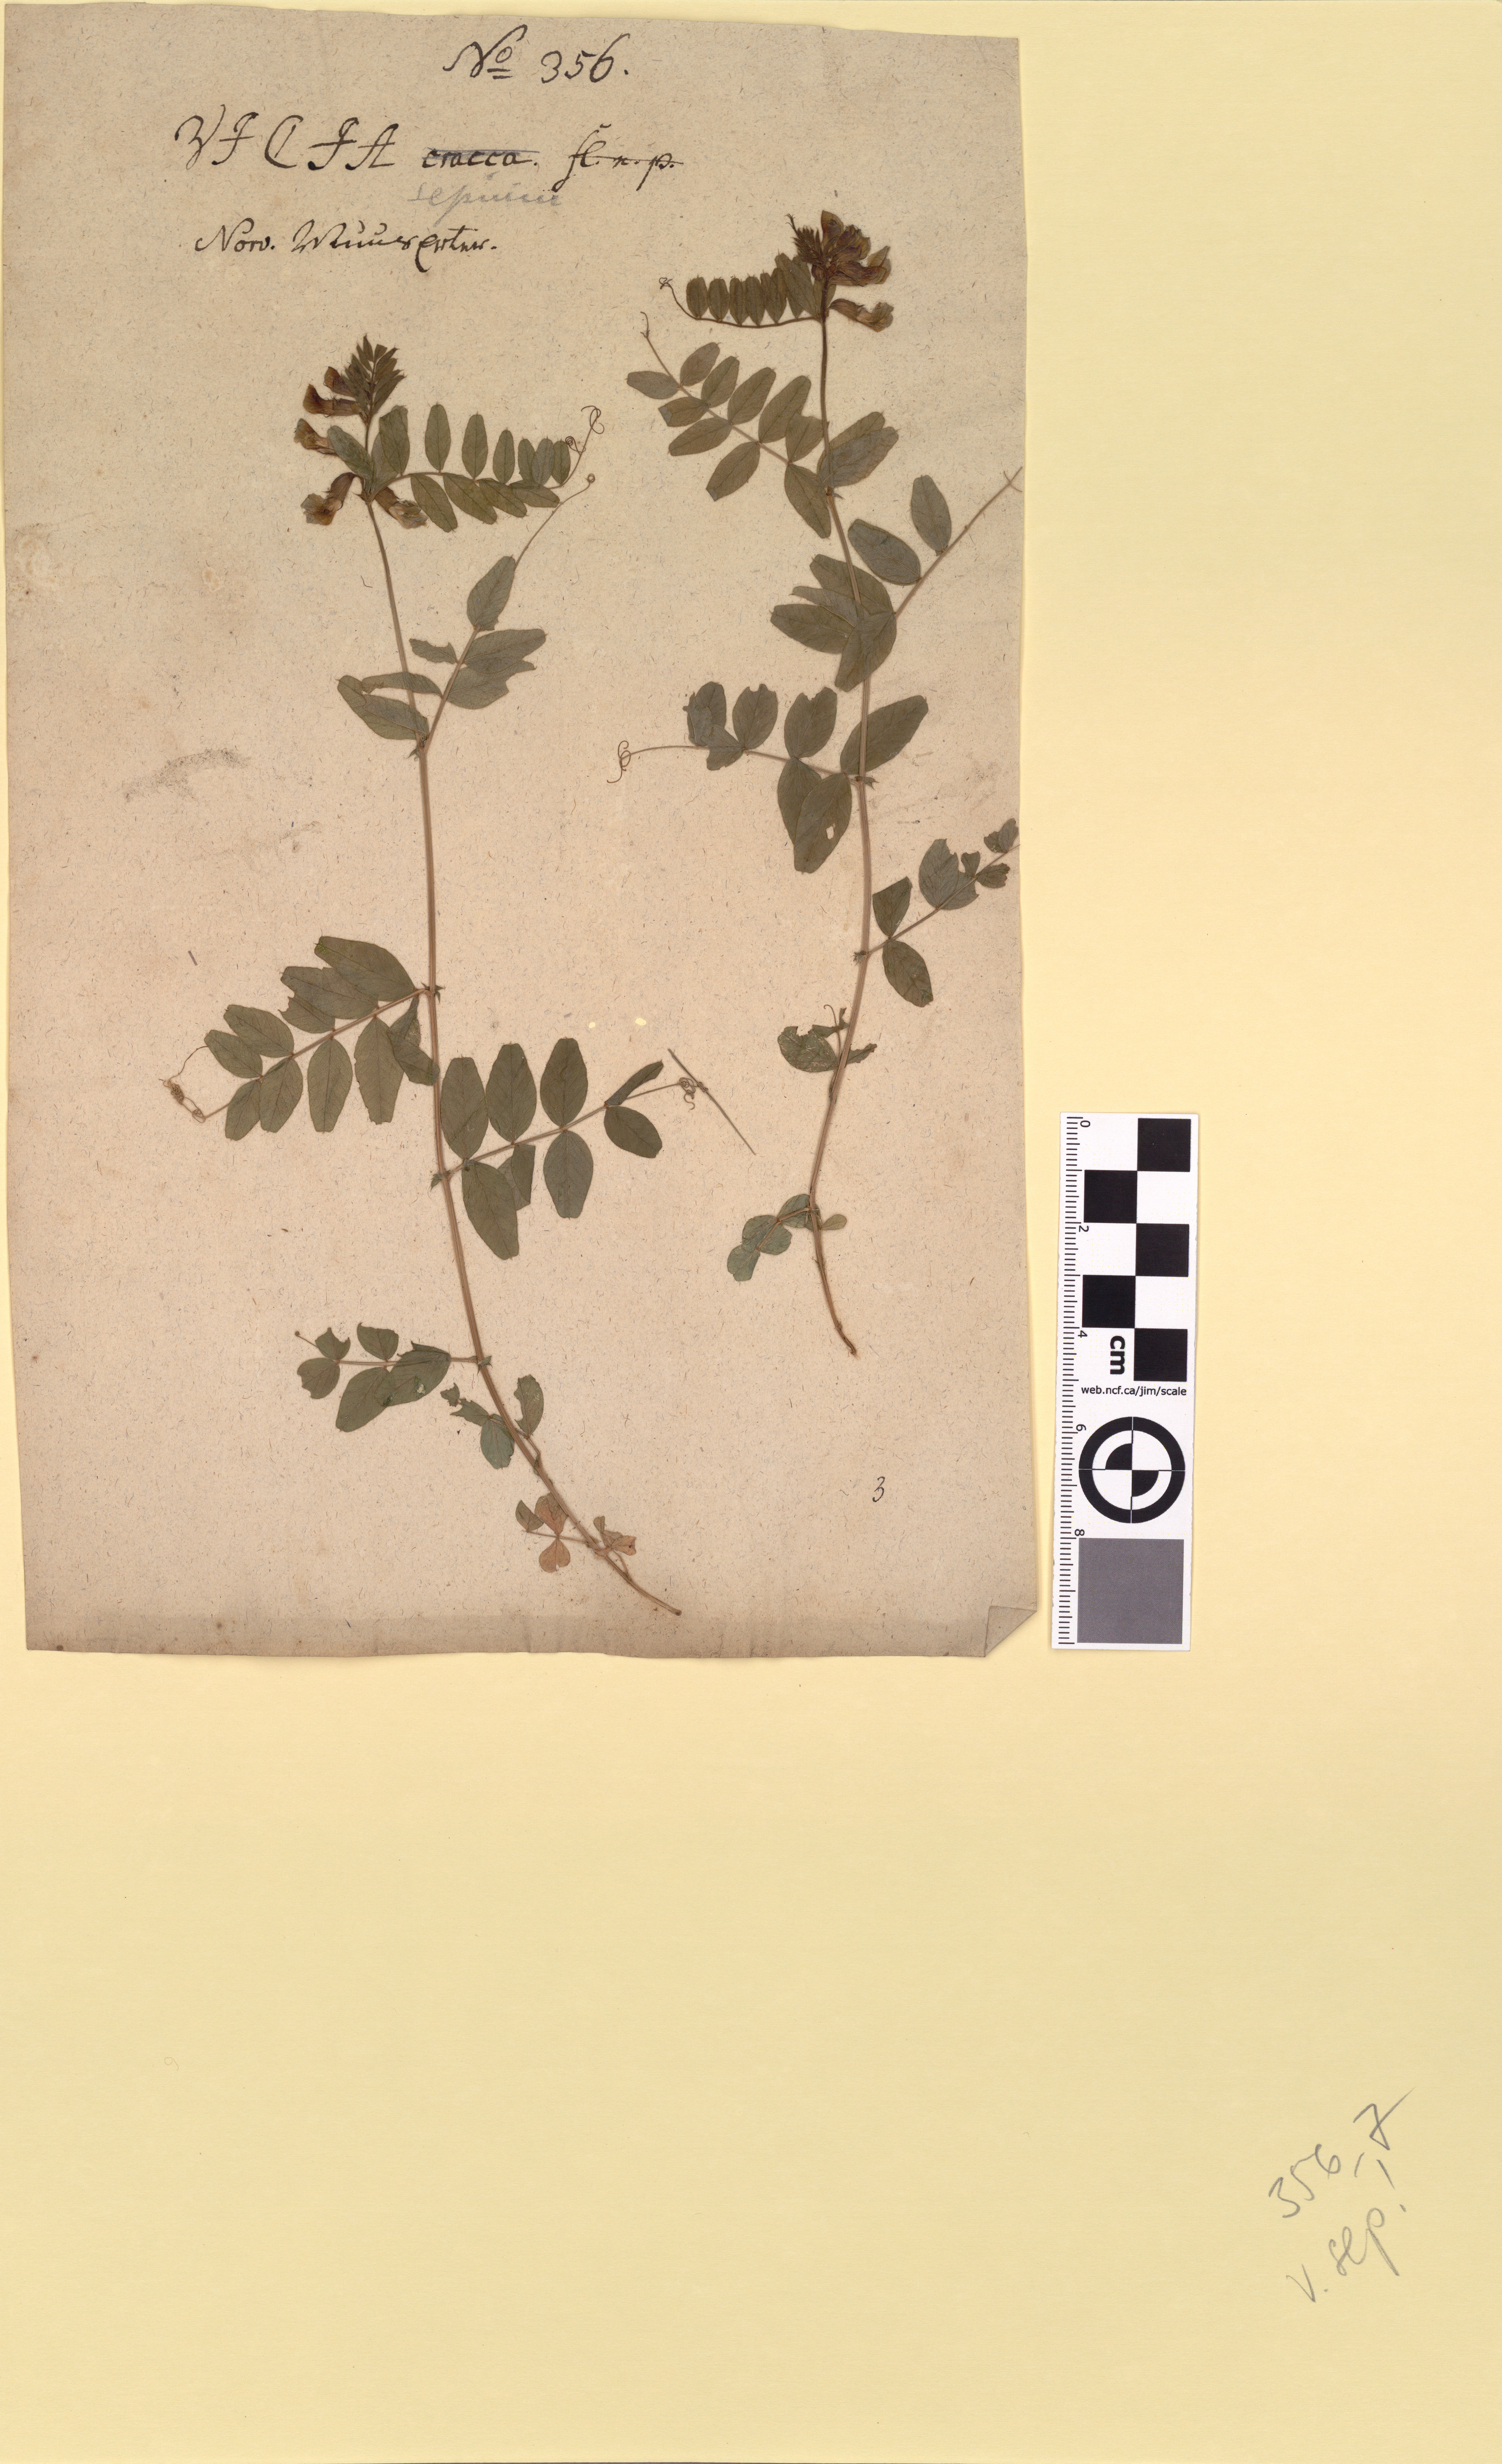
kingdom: Plantae
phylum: Tracheophyta
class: Magnoliopsida
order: Fabales
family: Fabaceae
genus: Vicia
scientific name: Vicia sepium
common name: Bush vetch
